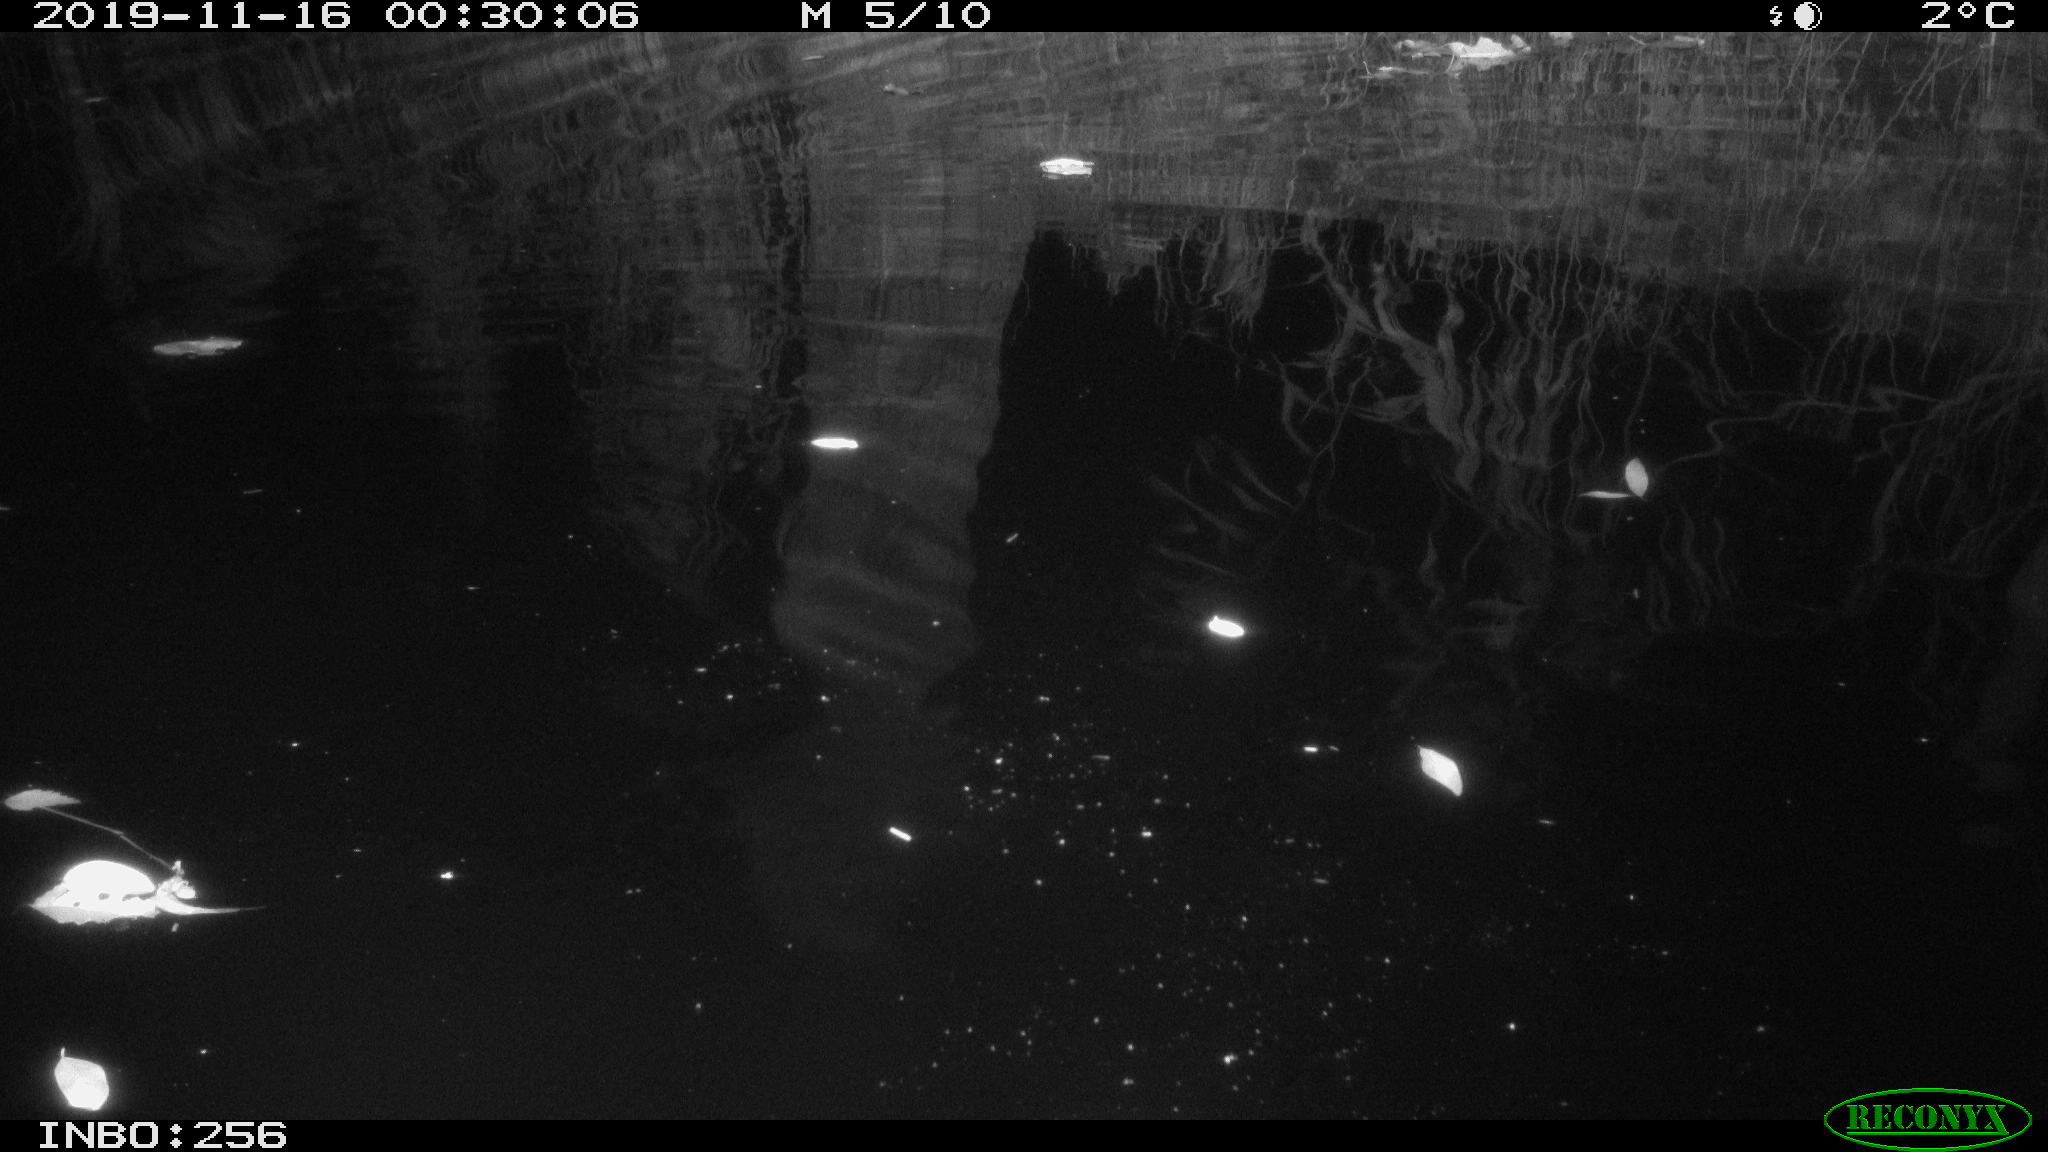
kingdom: Animalia
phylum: Chordata
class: Mammalia
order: Rodentia
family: Muridae
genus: Rattus
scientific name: Rattus norvegicus
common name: Brown rat
